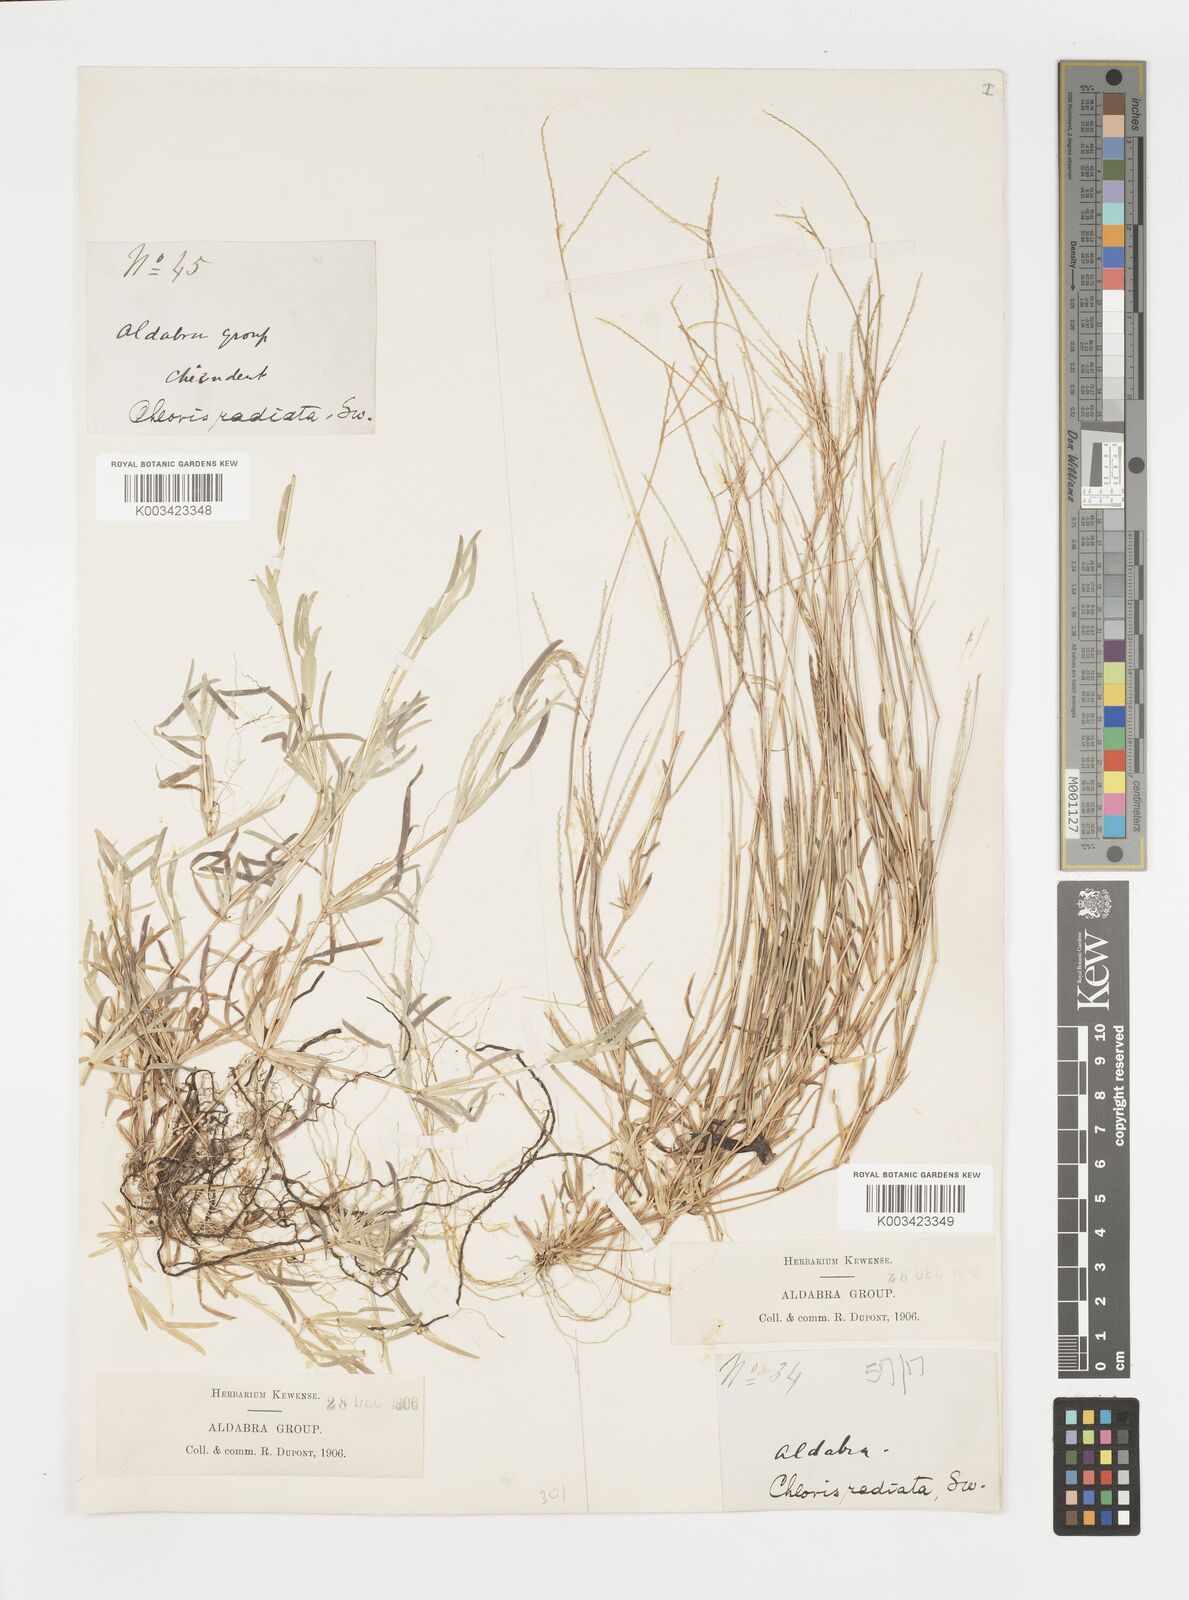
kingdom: Plantae
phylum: Tracheophyta
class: Liliopsida
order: Poales
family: Poaceae
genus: Daknopholis
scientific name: Daknopholis boivinii
